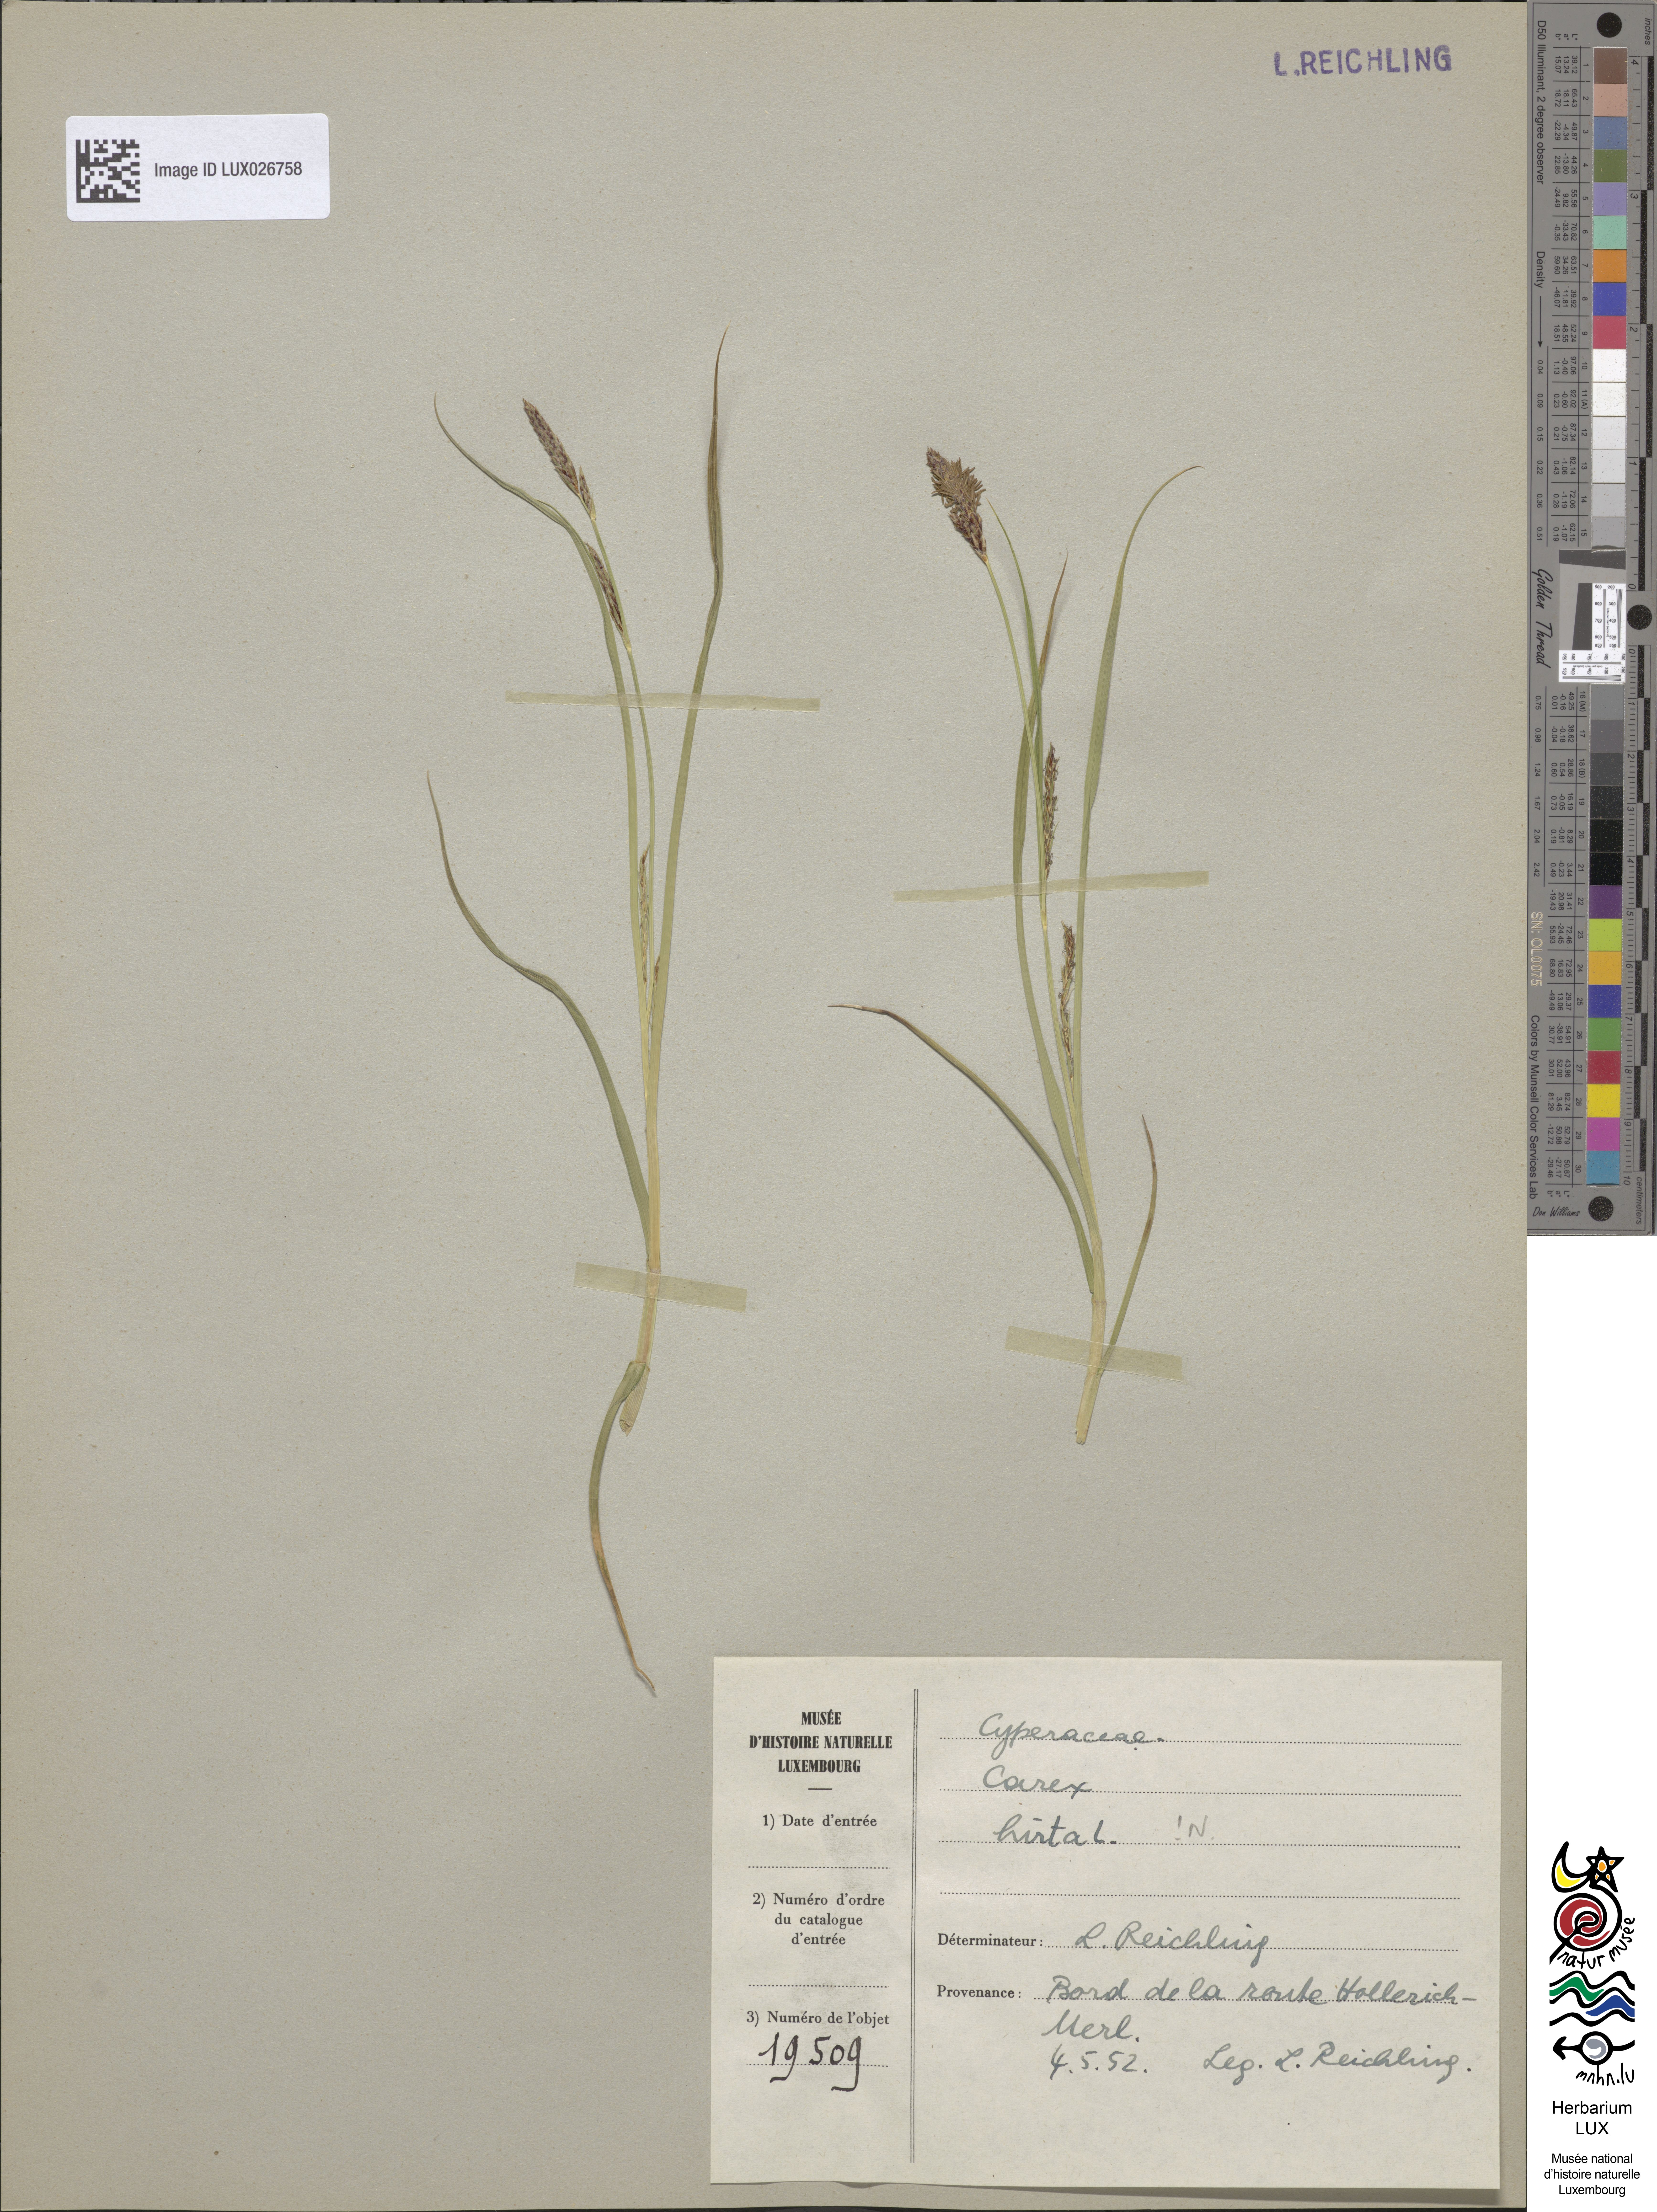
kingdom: Plantae
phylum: Tracheophyta
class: Liliopsida
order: Poales
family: Cyperaceae
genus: Carex
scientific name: Carex hirta
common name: Hairy sedge
